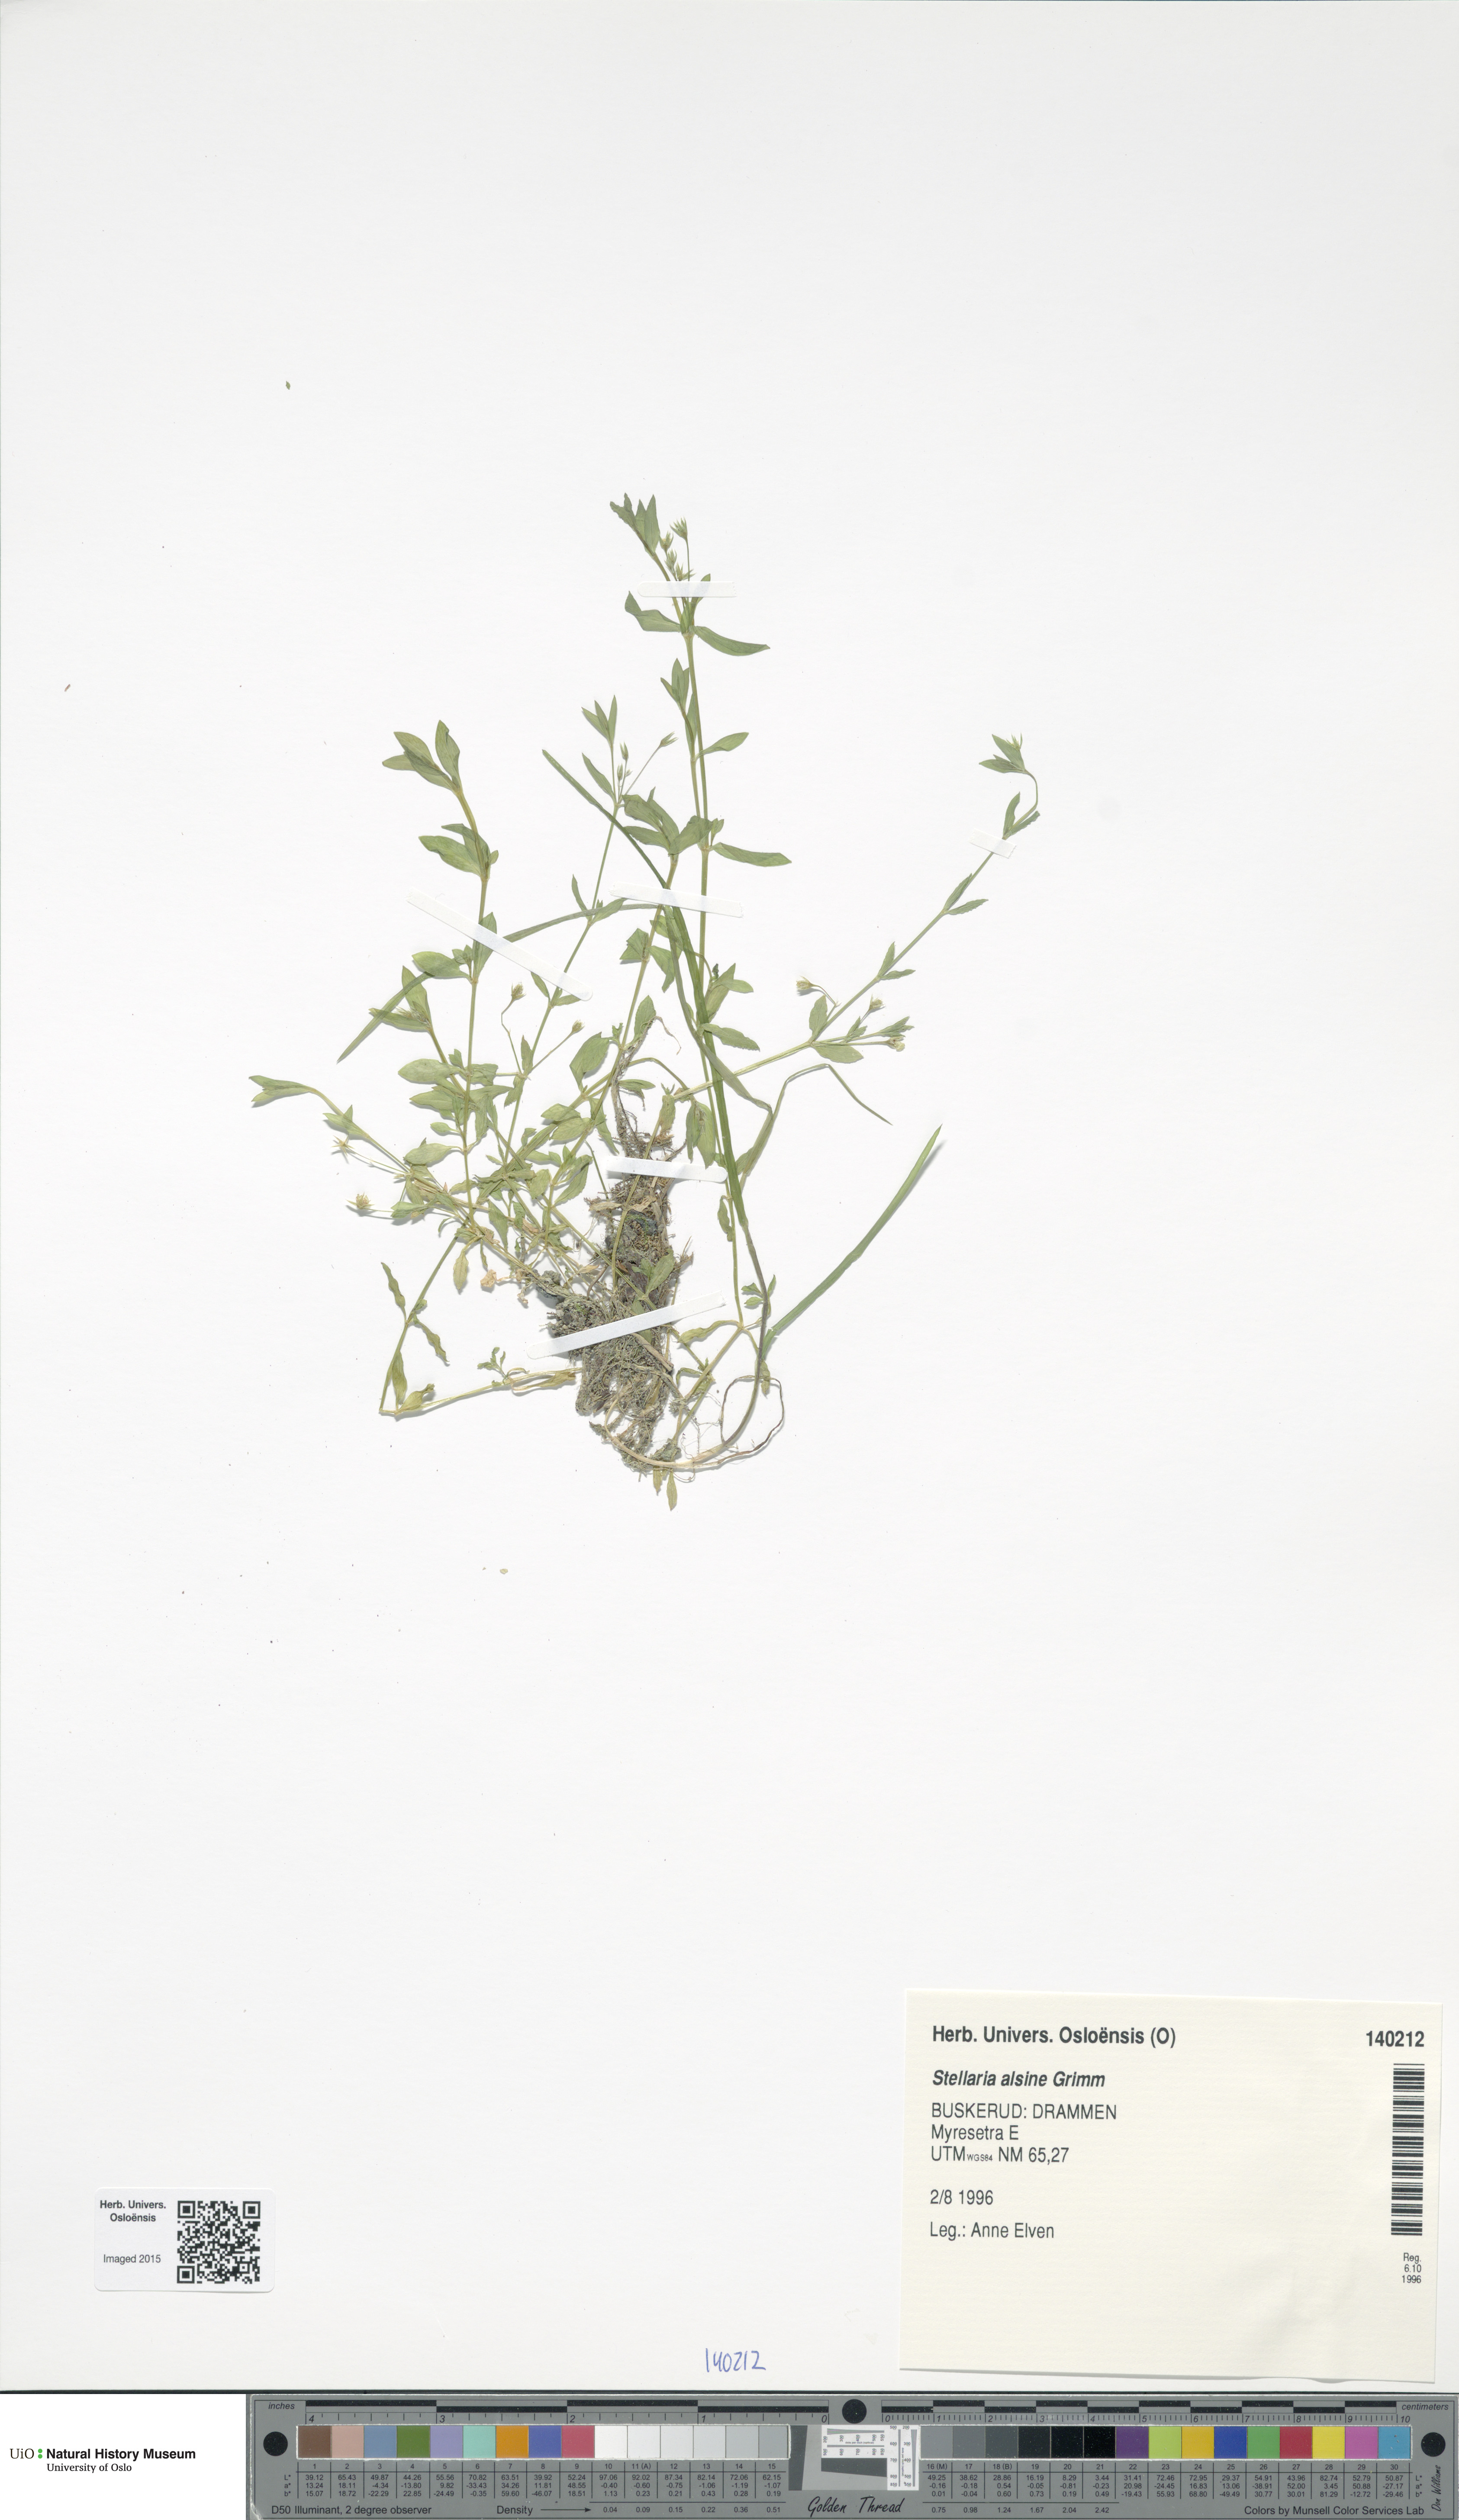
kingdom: Plantae
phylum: Tracheophyta
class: Magnoliopsida
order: Caryophyllales
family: Caryophyllaceae
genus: Stellaria
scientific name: Stellaria alsine
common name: Bog stitchwort
